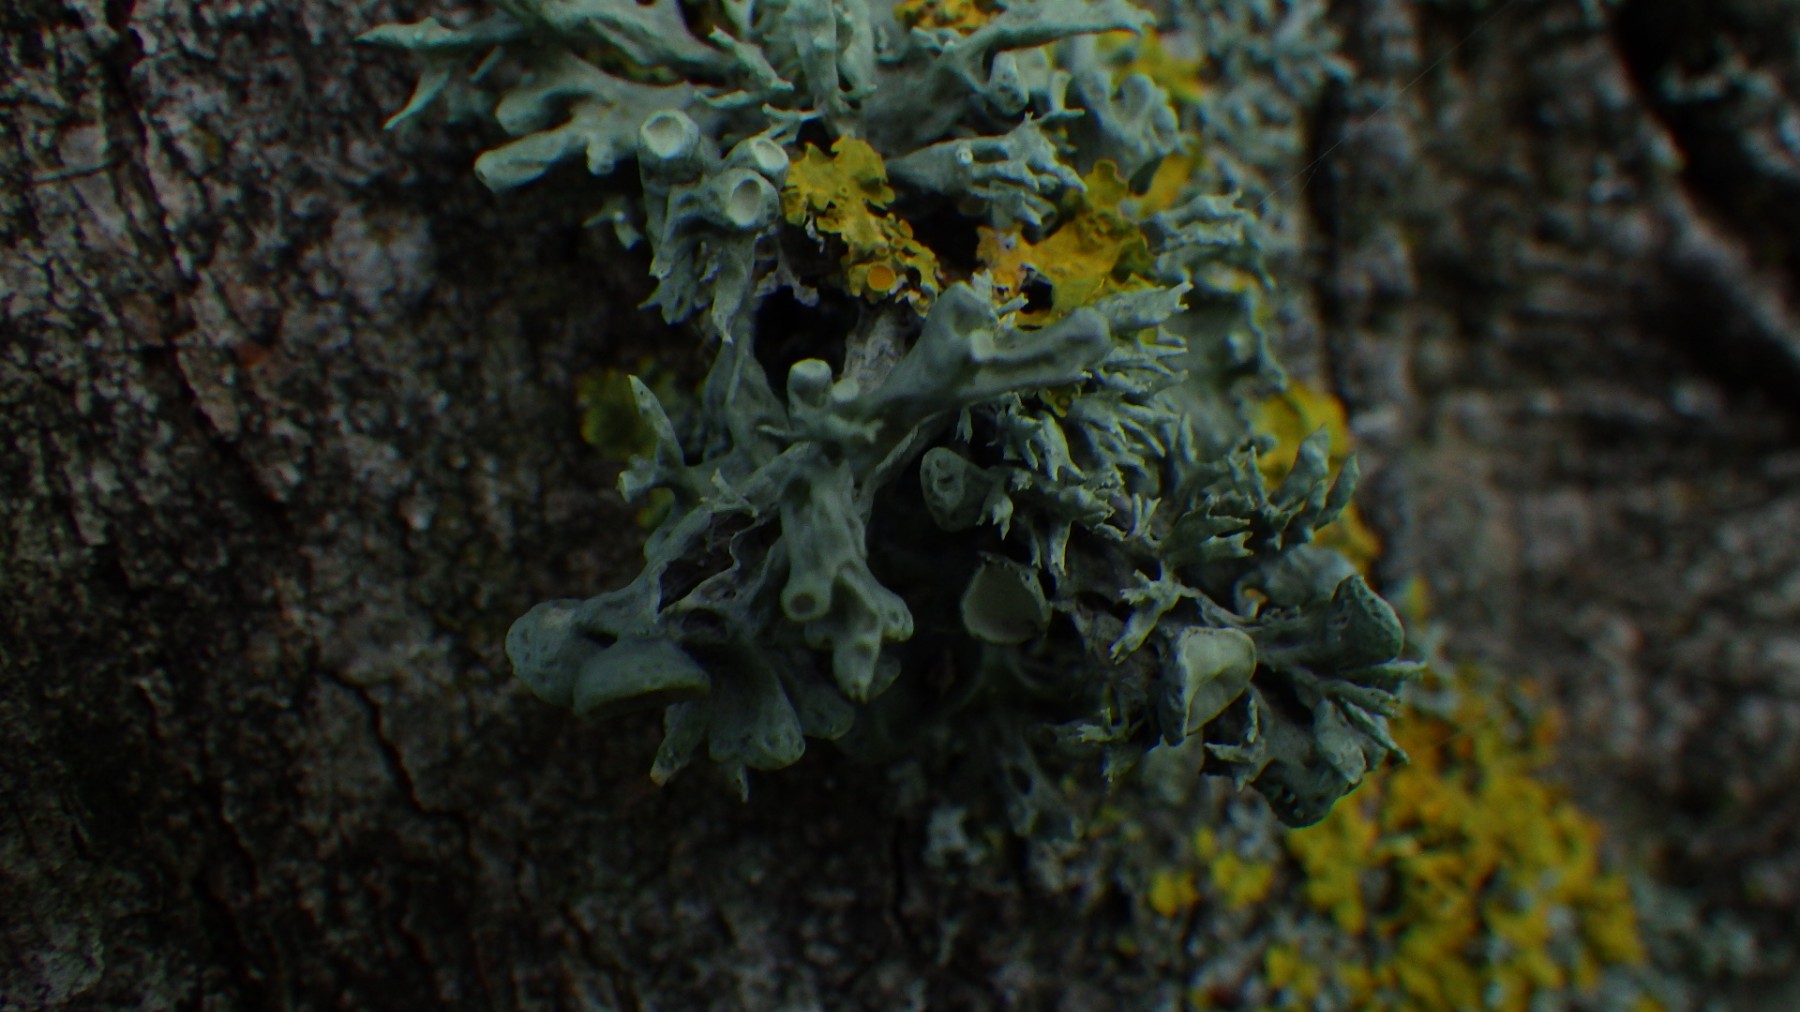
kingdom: Fungi
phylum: Ascomycota
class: Lecanoromycetes
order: Lecanorales
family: Ramalinaceae
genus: Ramalina
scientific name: Ramalina fastigiata
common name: tue-grenlav
